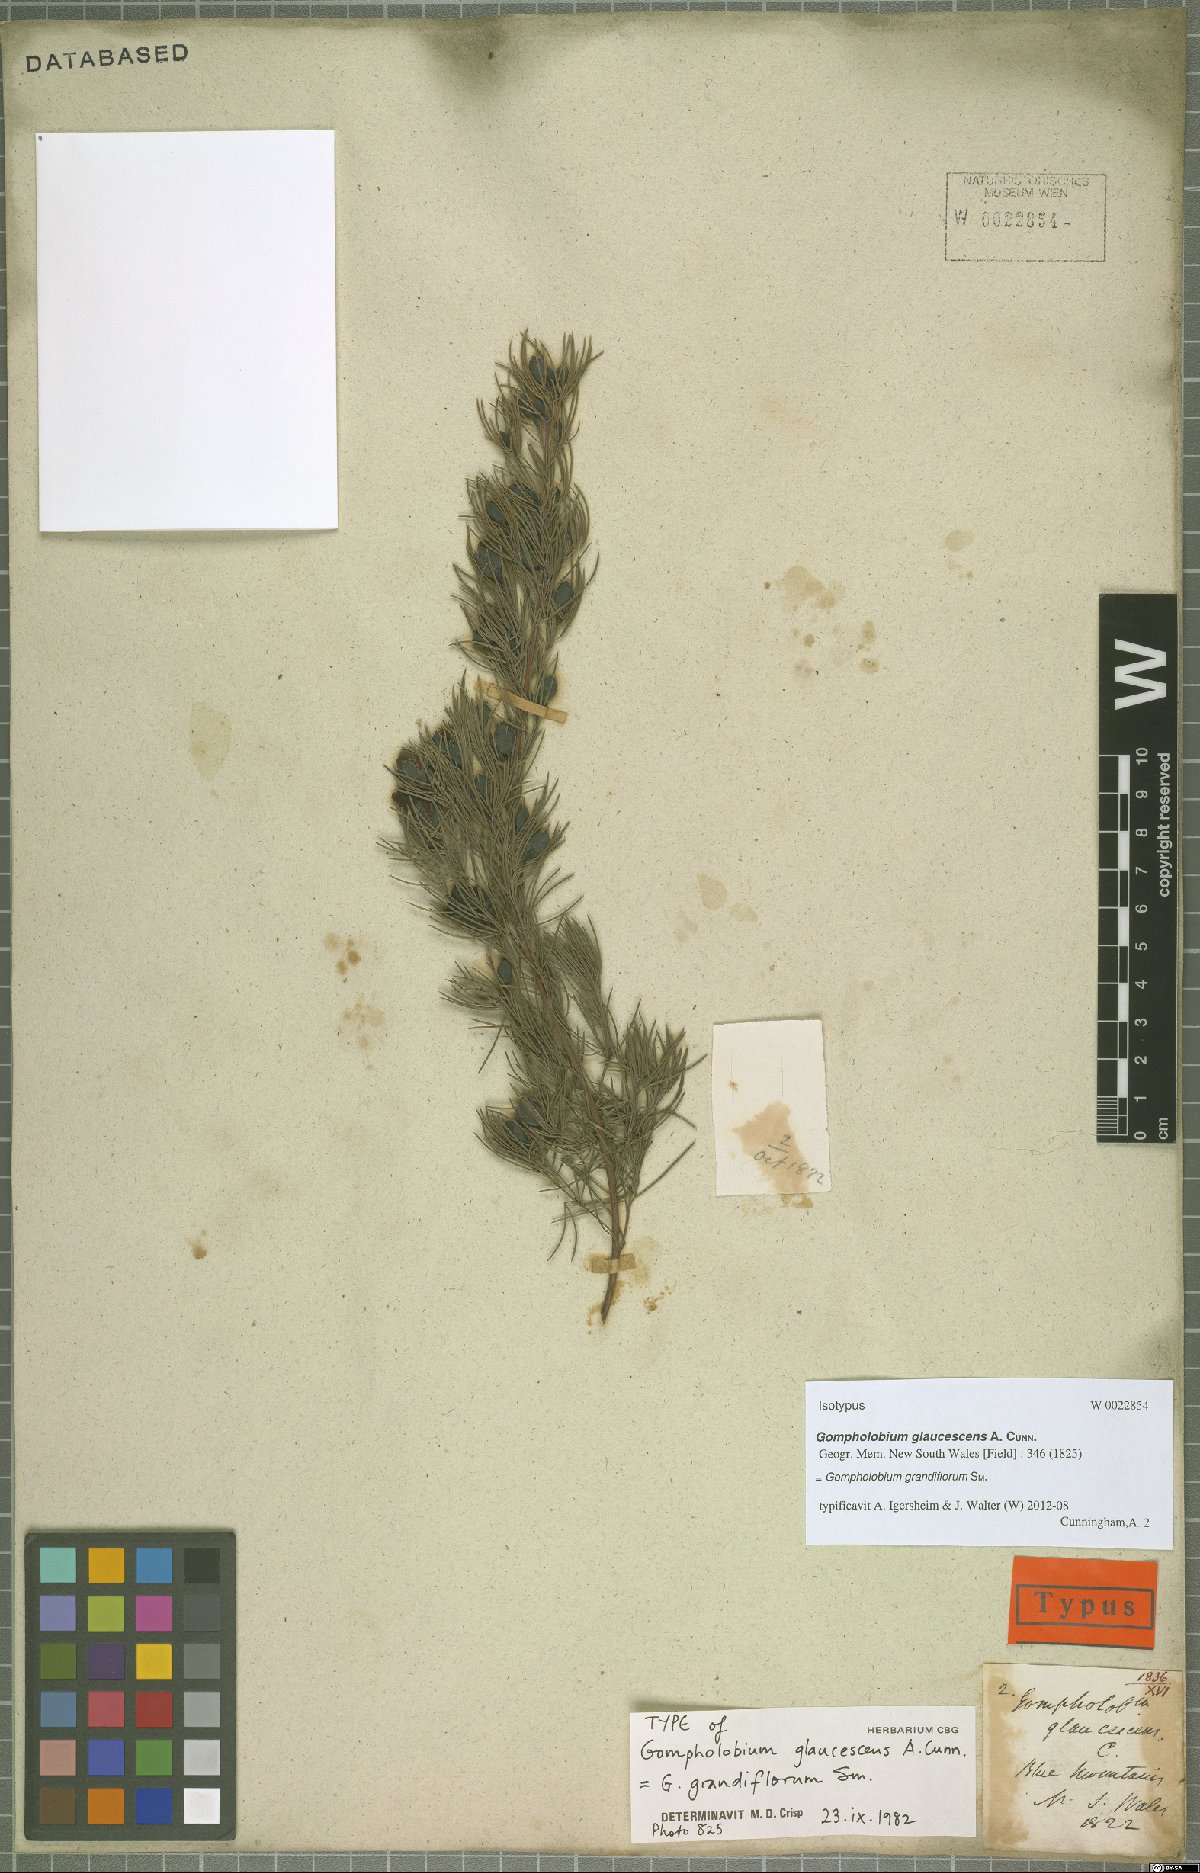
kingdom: Plantae
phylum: Tracheophyta
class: Magnoliopsida
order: Fabales
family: Fabaceae
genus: Gompholobium
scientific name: Gompholobium grandiflorum
